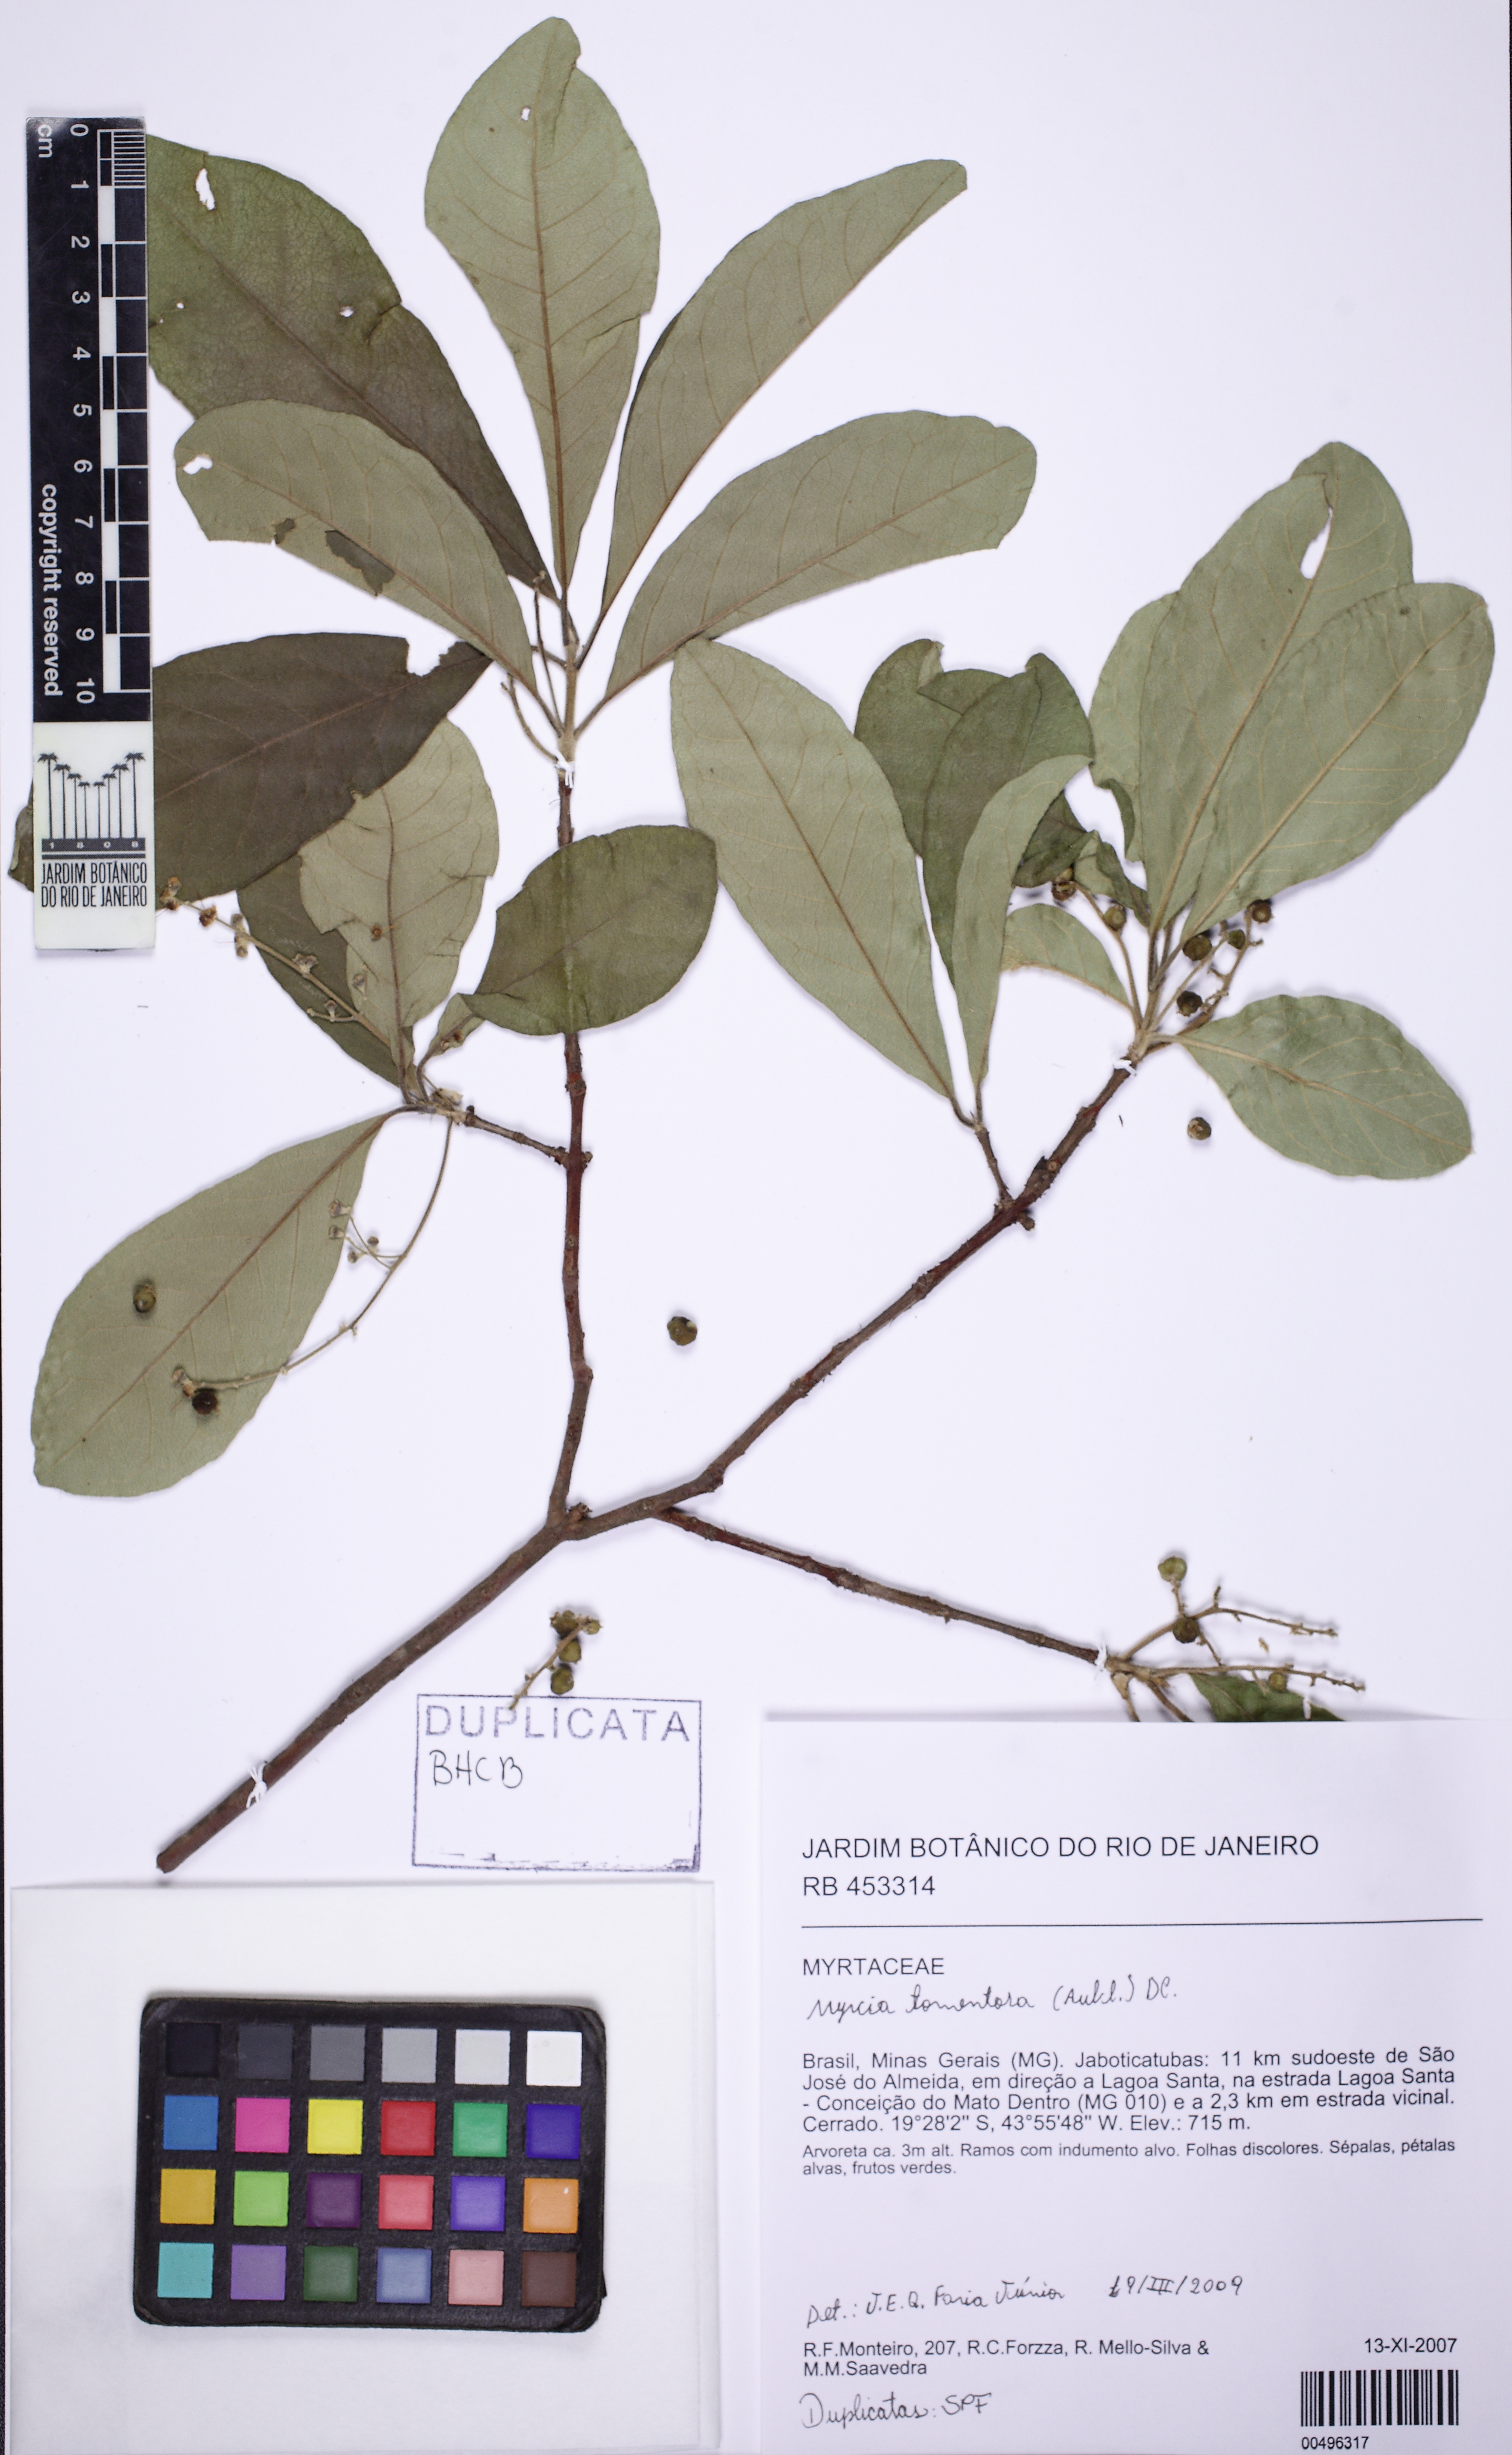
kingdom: Plantae
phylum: Tracheophyta
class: Magnoliopsida
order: Myrtales
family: Myrtaceae
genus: Myrcia
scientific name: Myrcia tomentosa
